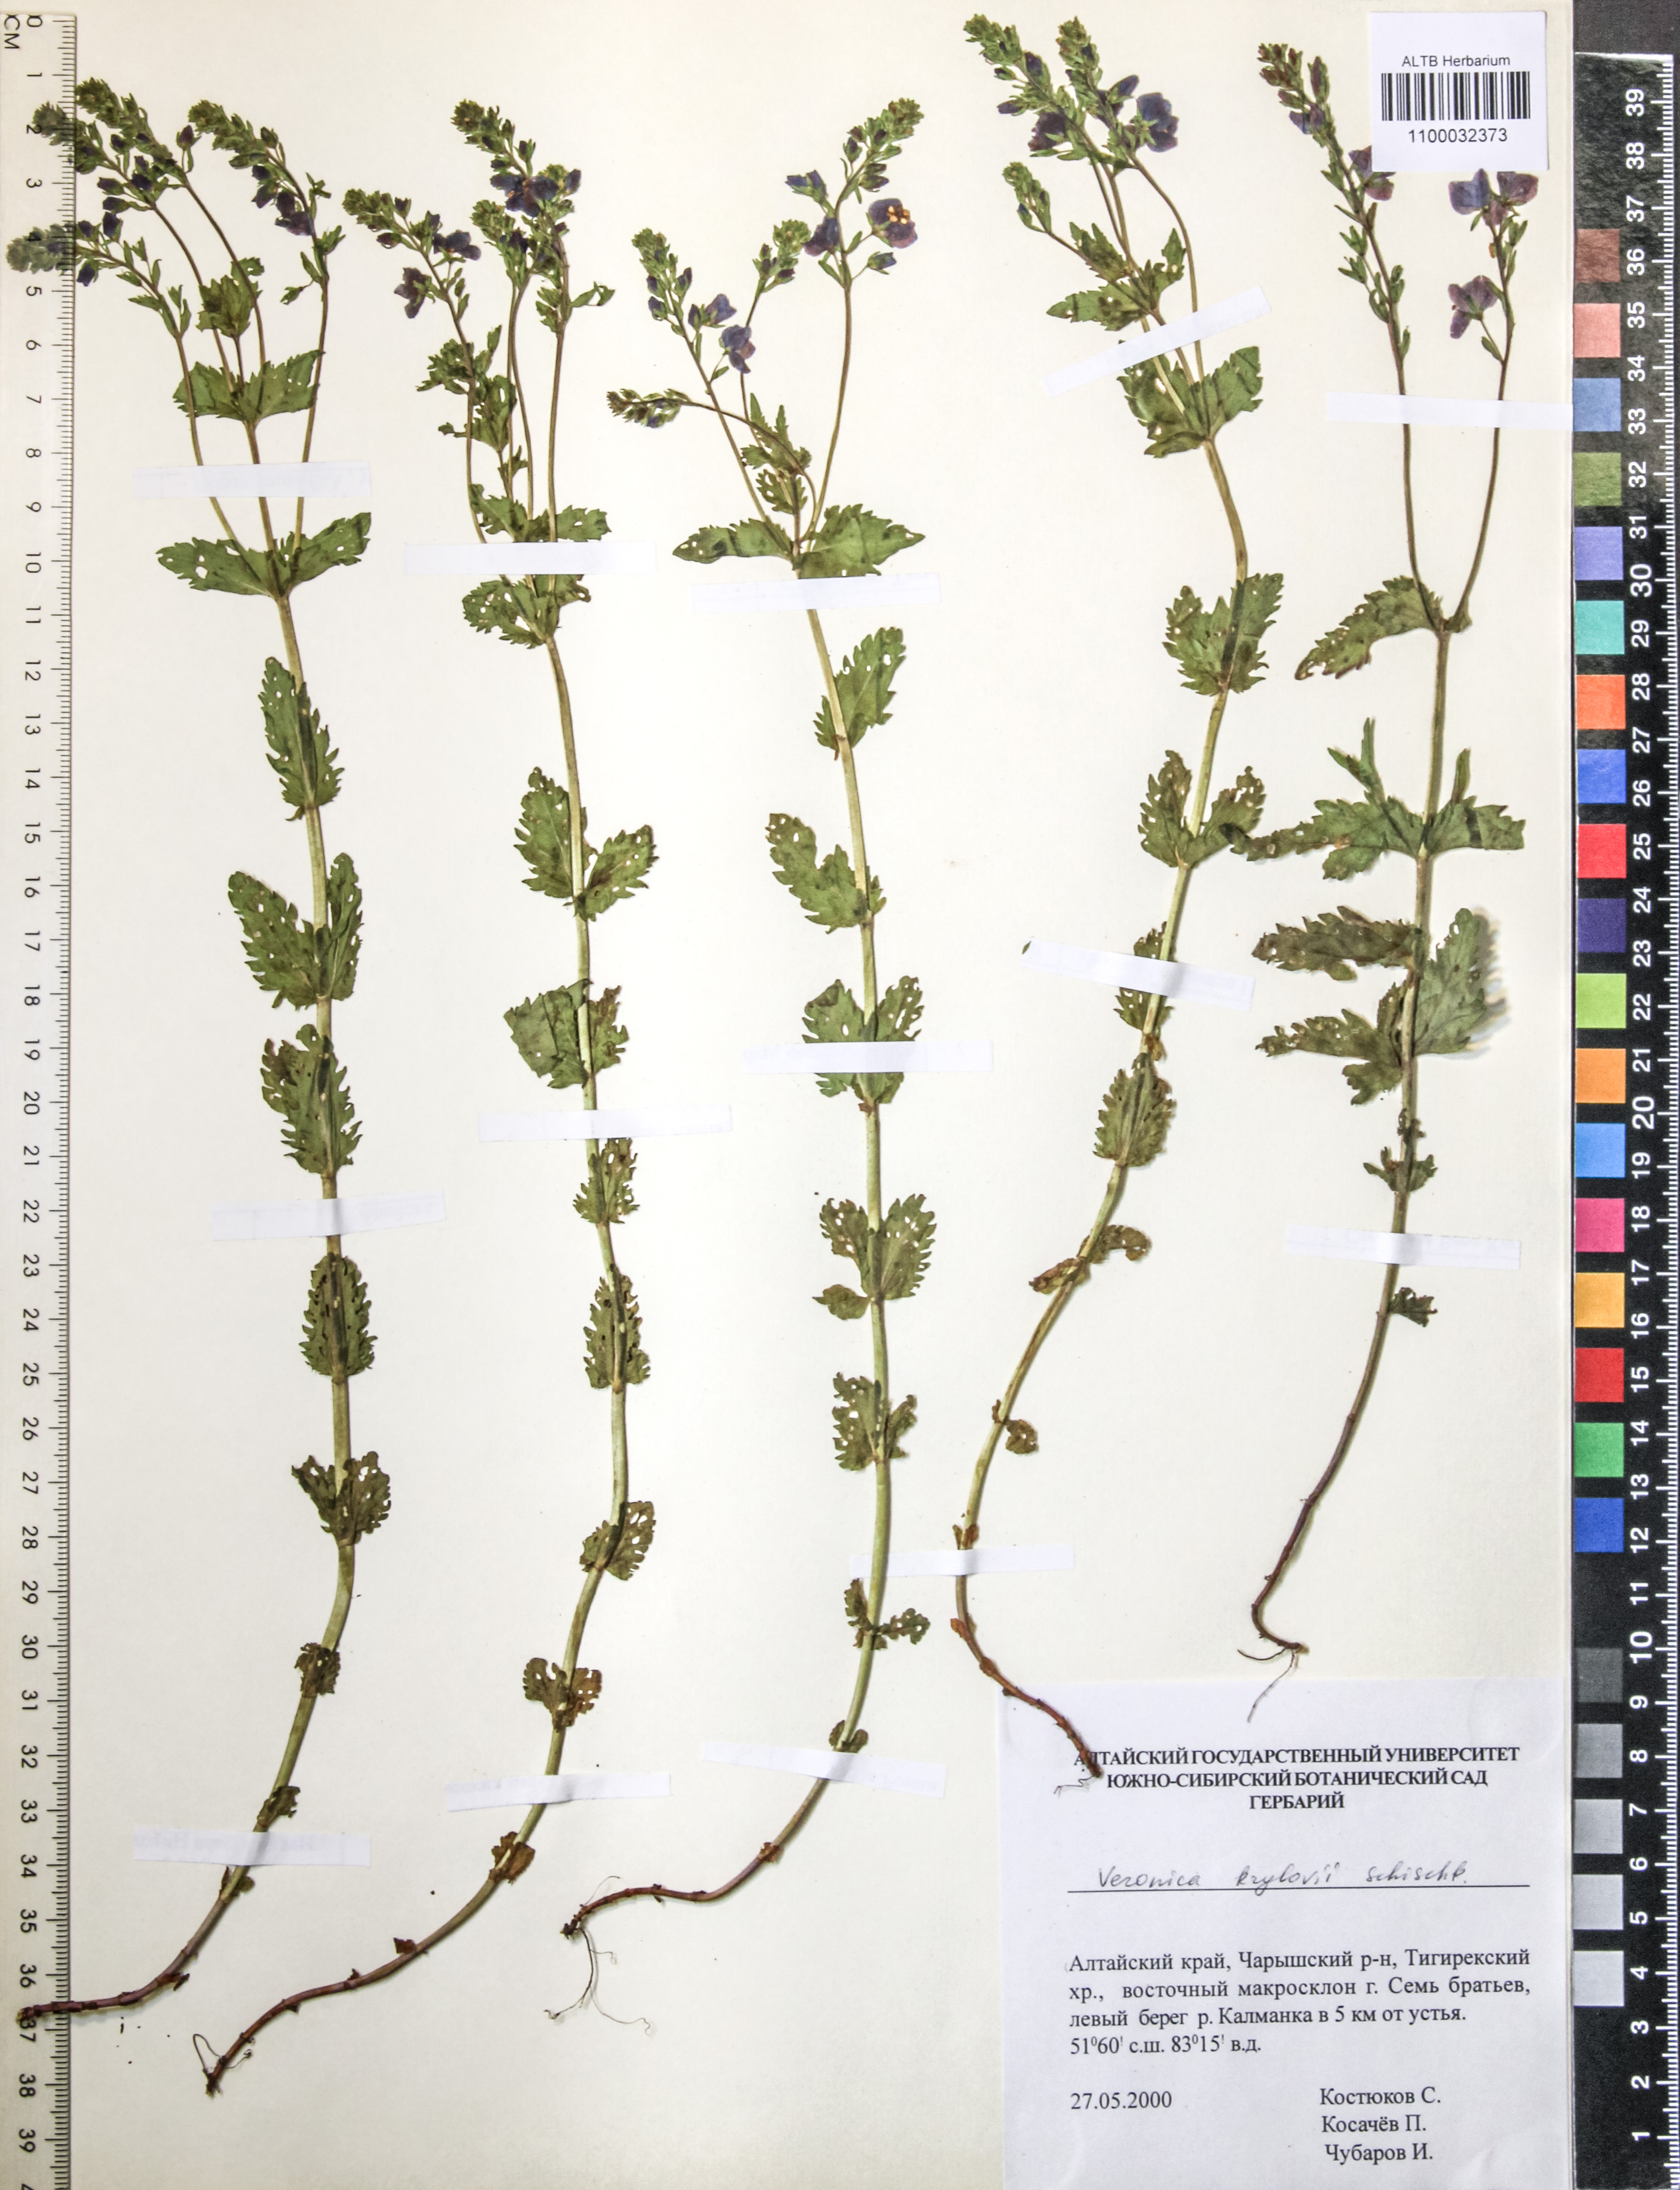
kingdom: Plantae
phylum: Tracheophyta
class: Magnoliopsida
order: Lamiales
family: Plantaginaceae
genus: Veronica
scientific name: Veronica krylovii
